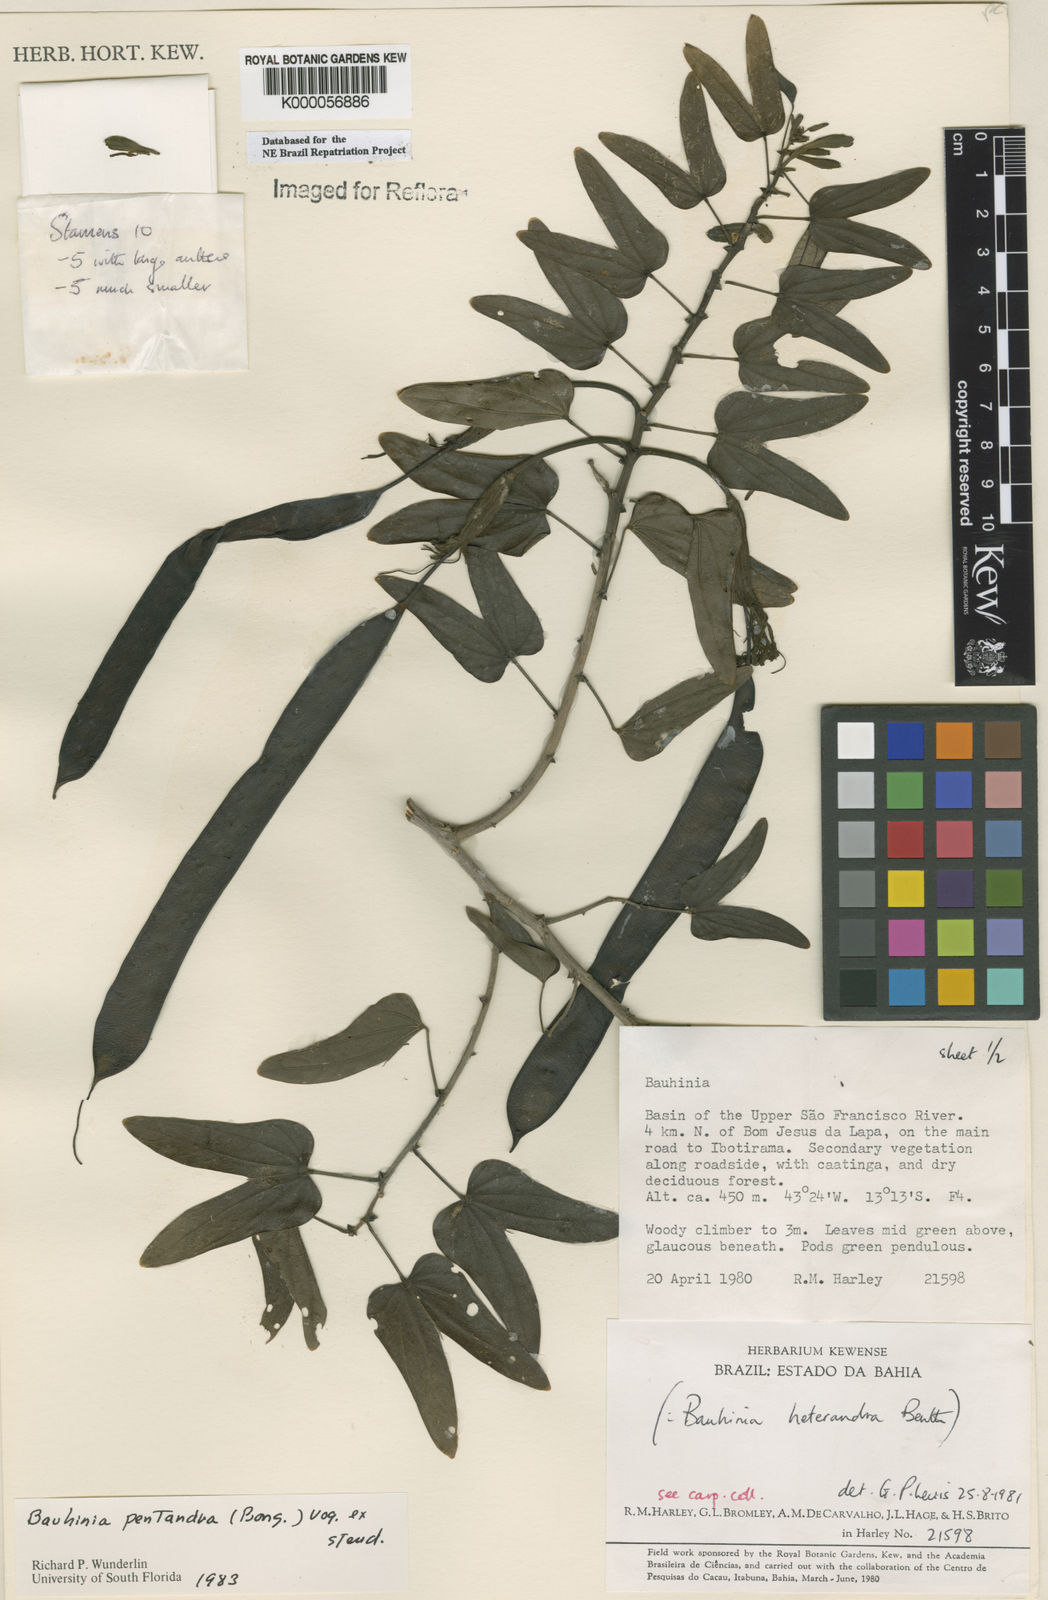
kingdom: Plantae
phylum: Tracheophyta
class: Magnoliopsida
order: Fabales
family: Fabaceae
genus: Bauhinia
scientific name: Bauhinia
